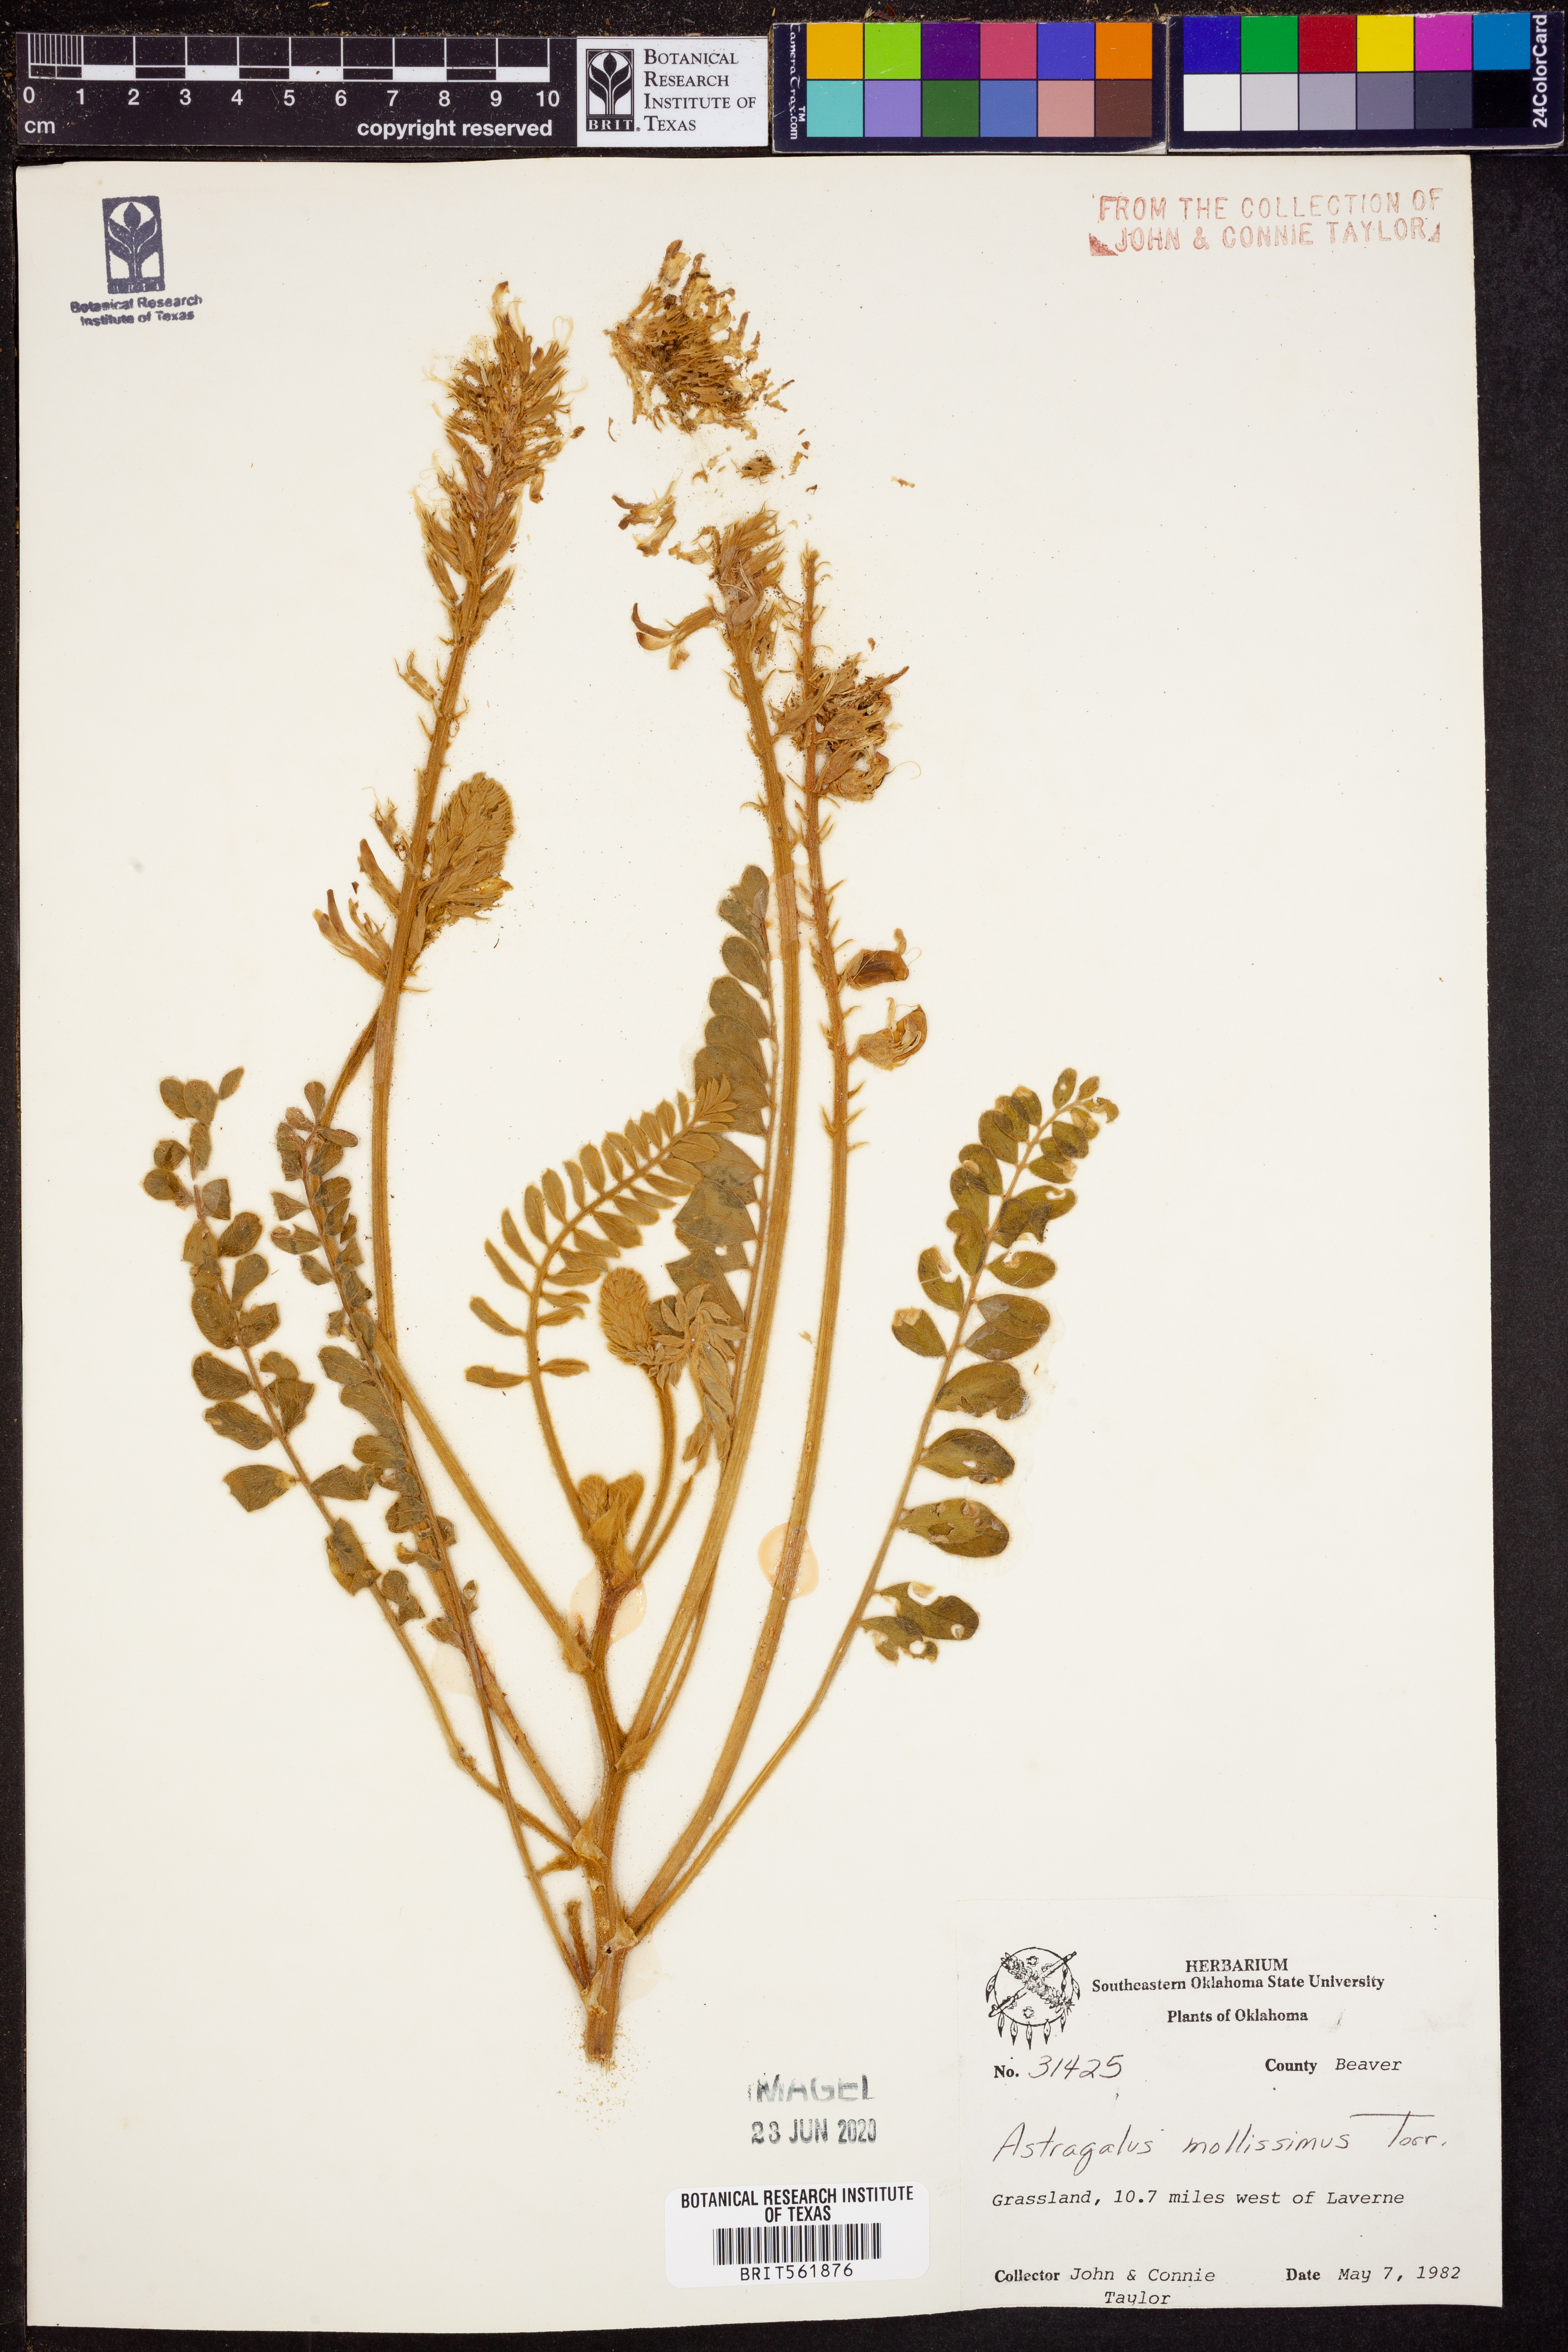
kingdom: Plantae
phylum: Tracheophyta
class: Magnoliopsida
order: Fabales
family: Fabaceae
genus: Astragalus
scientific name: Astragalus mollissimus
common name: Woolly locoweed
